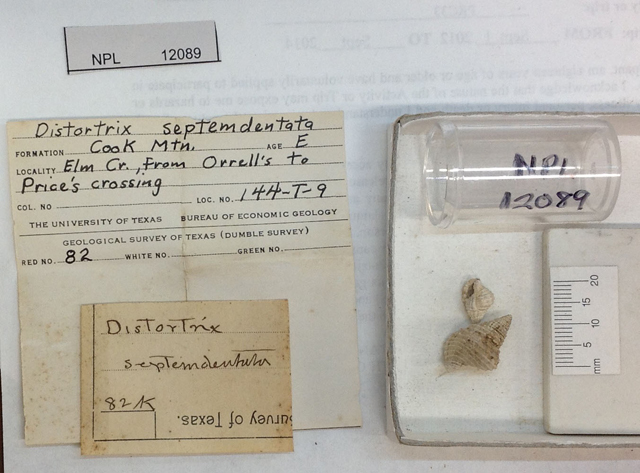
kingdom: Animalia
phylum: Mollusca
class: Gastropoda
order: Littorinimorpha
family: Personidae
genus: Personopsis
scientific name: Personopsis septemdentata
